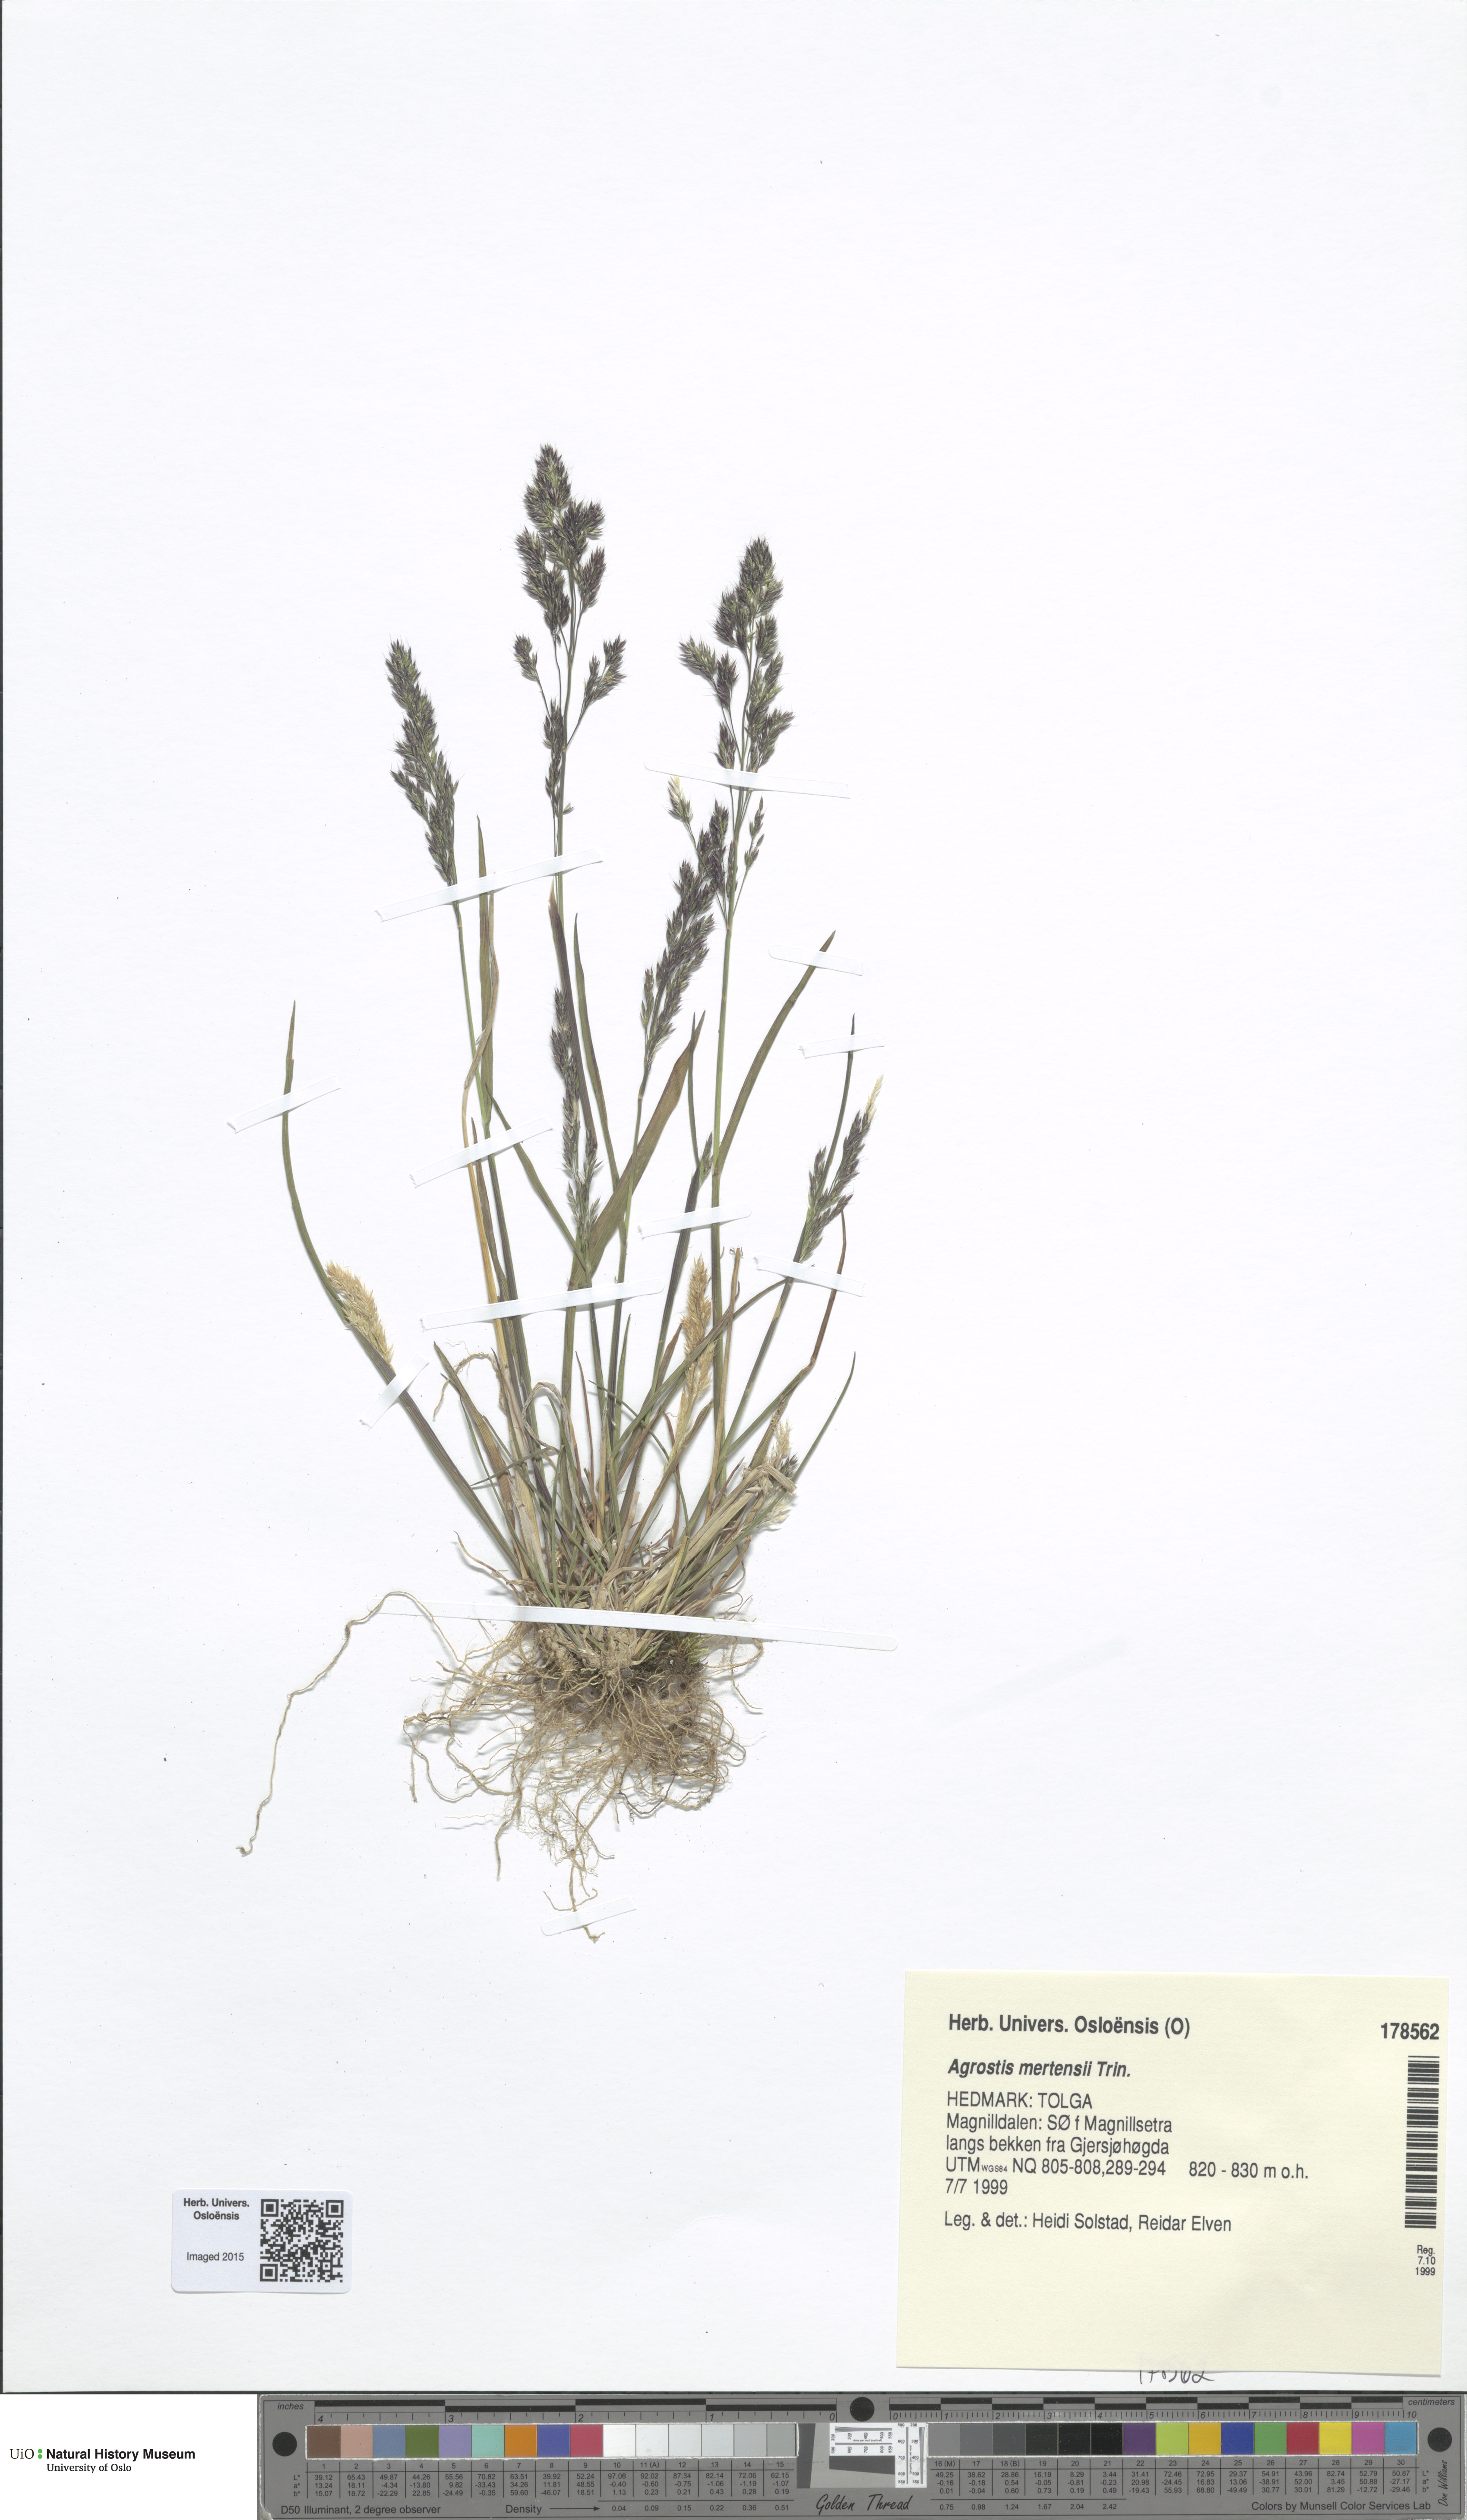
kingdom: Plantae
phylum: Tracheophyta
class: Liliopsida
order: Poales
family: Poaceae
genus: Agrostis
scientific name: Agrostis mertensii
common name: Northern bent
